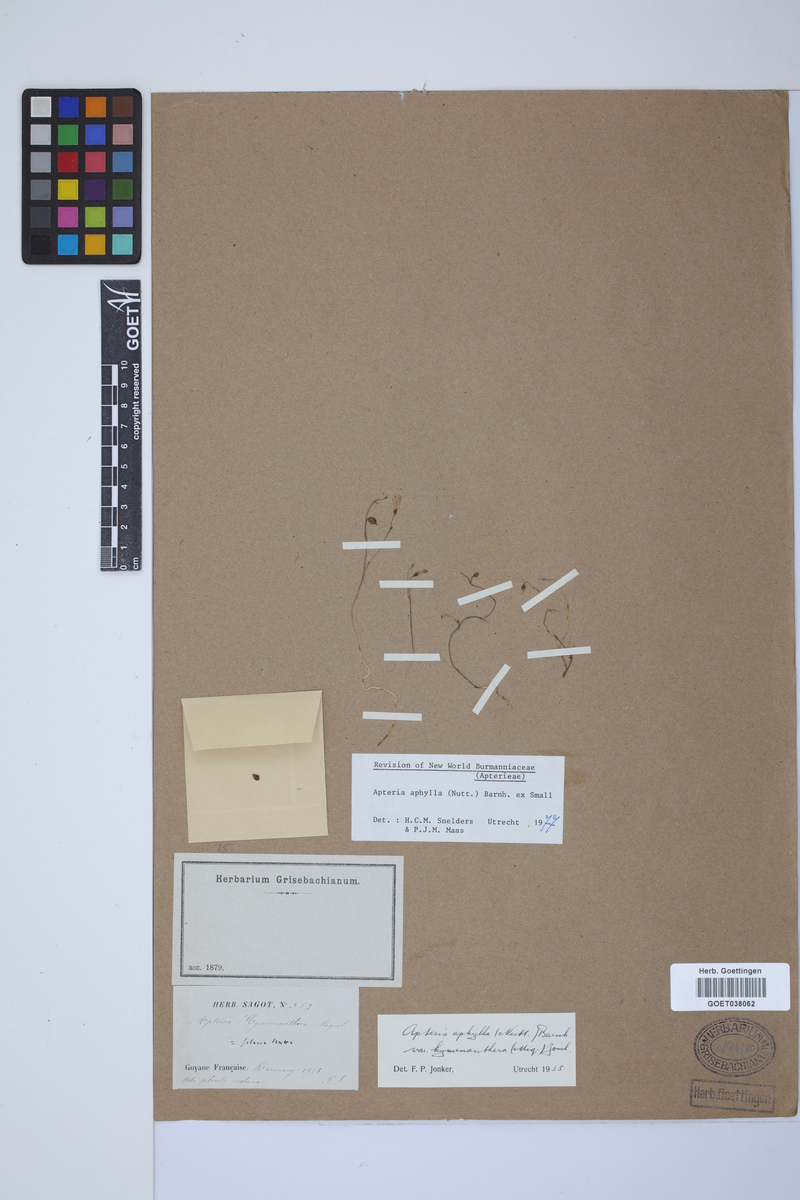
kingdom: Plantae
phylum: Tracheophyta
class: Liliopsida
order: Dioscoreales
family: Burmanniaceae
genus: Apteria
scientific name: Apteria aphylla
